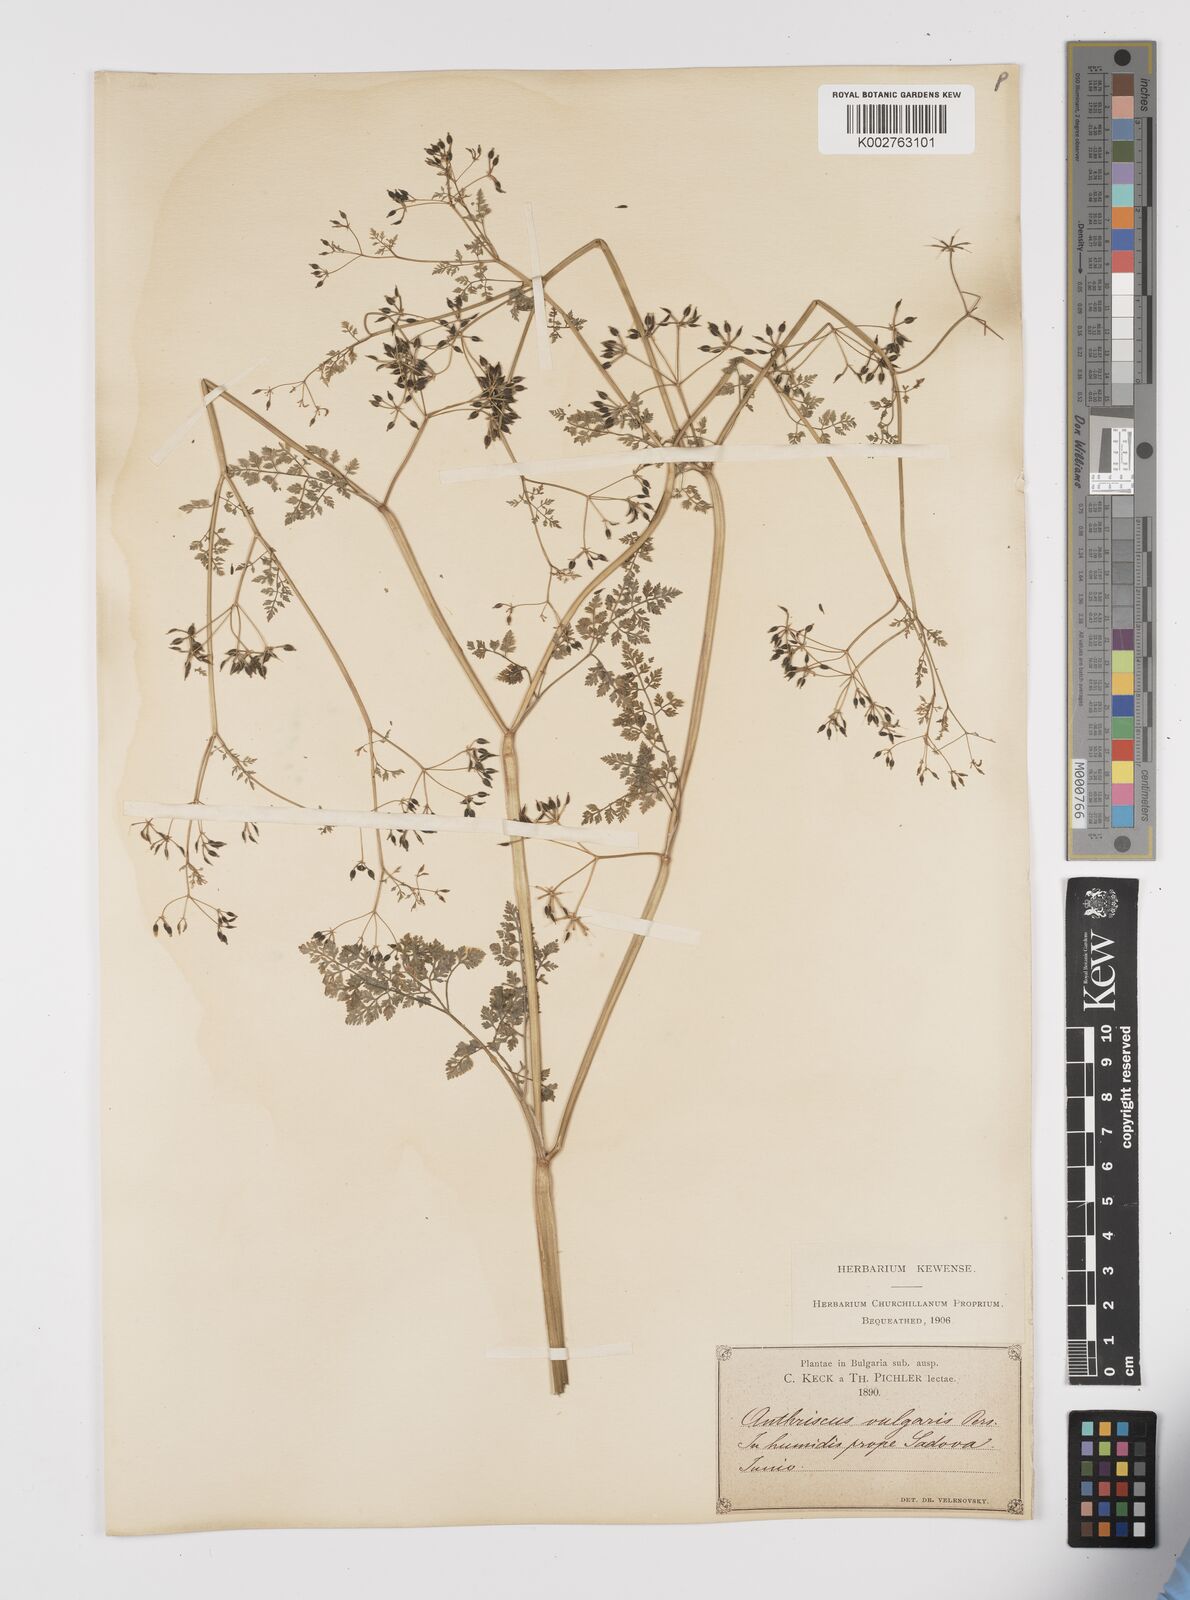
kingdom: Plantae
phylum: Tracheophyta
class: Magnoliopsida
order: Apiales
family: Apiaceae
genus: Anthriscus
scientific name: Anthriscus caucalis
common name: Bur chervil
